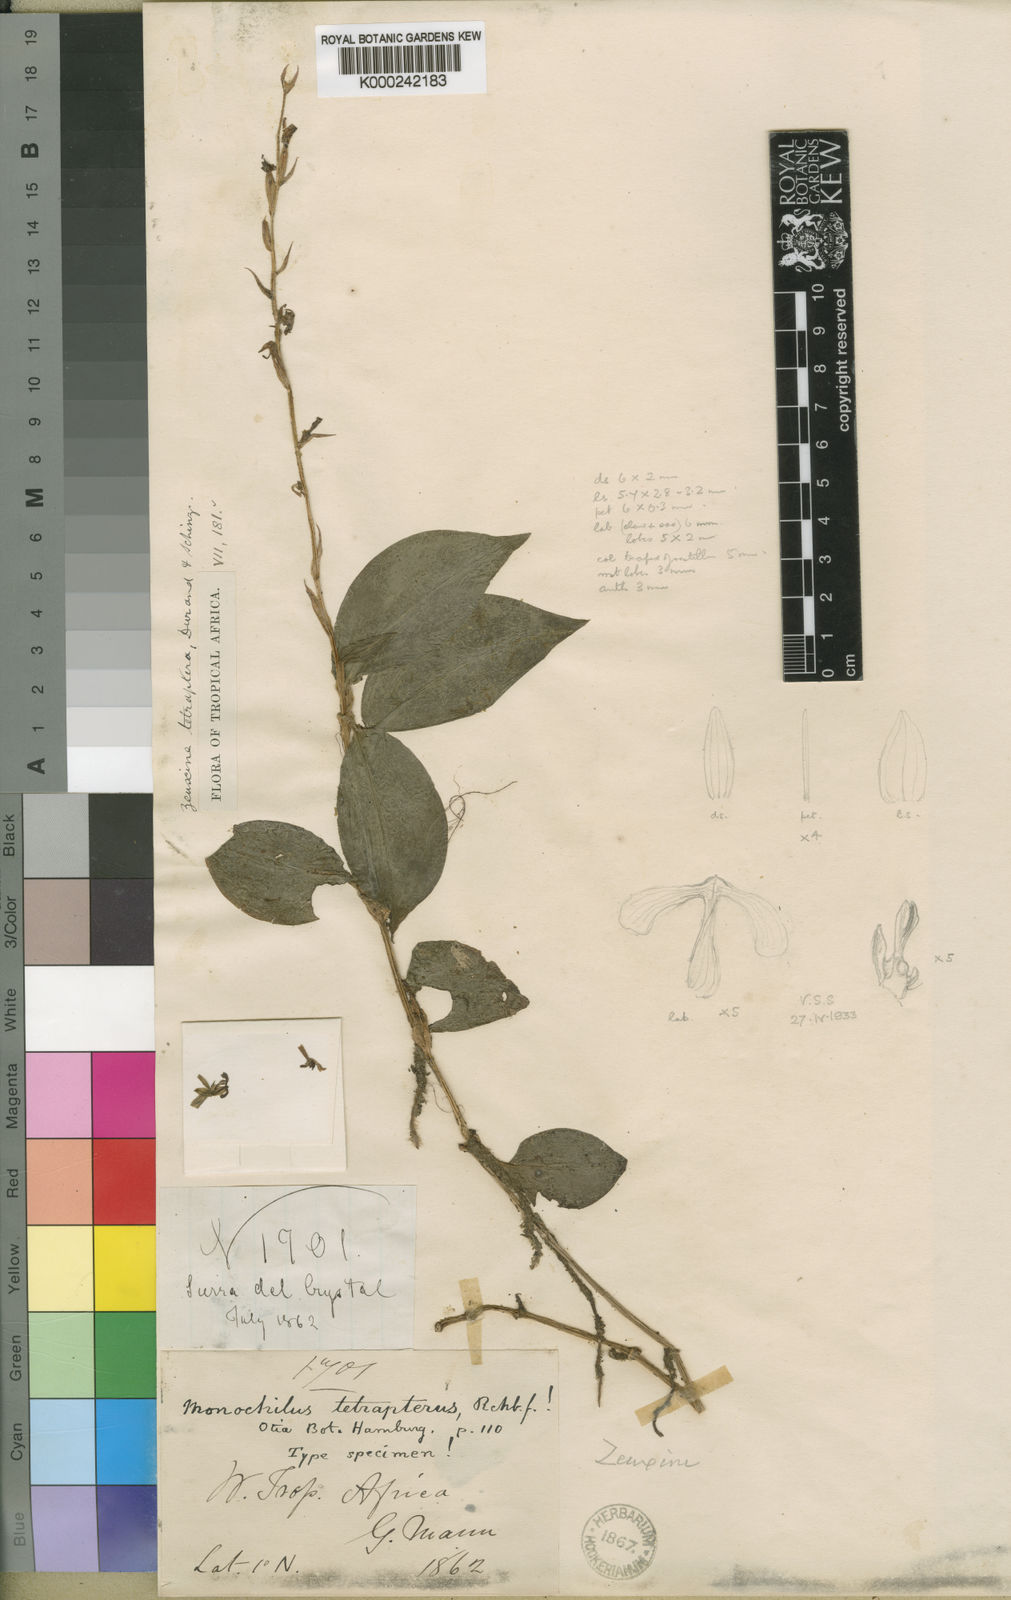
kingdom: Plantae
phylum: Tracheophyta
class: Liliopsida
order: Asparagales
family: Orchidaceae
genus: Hetaeria
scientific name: Hetaeria tetraptera
